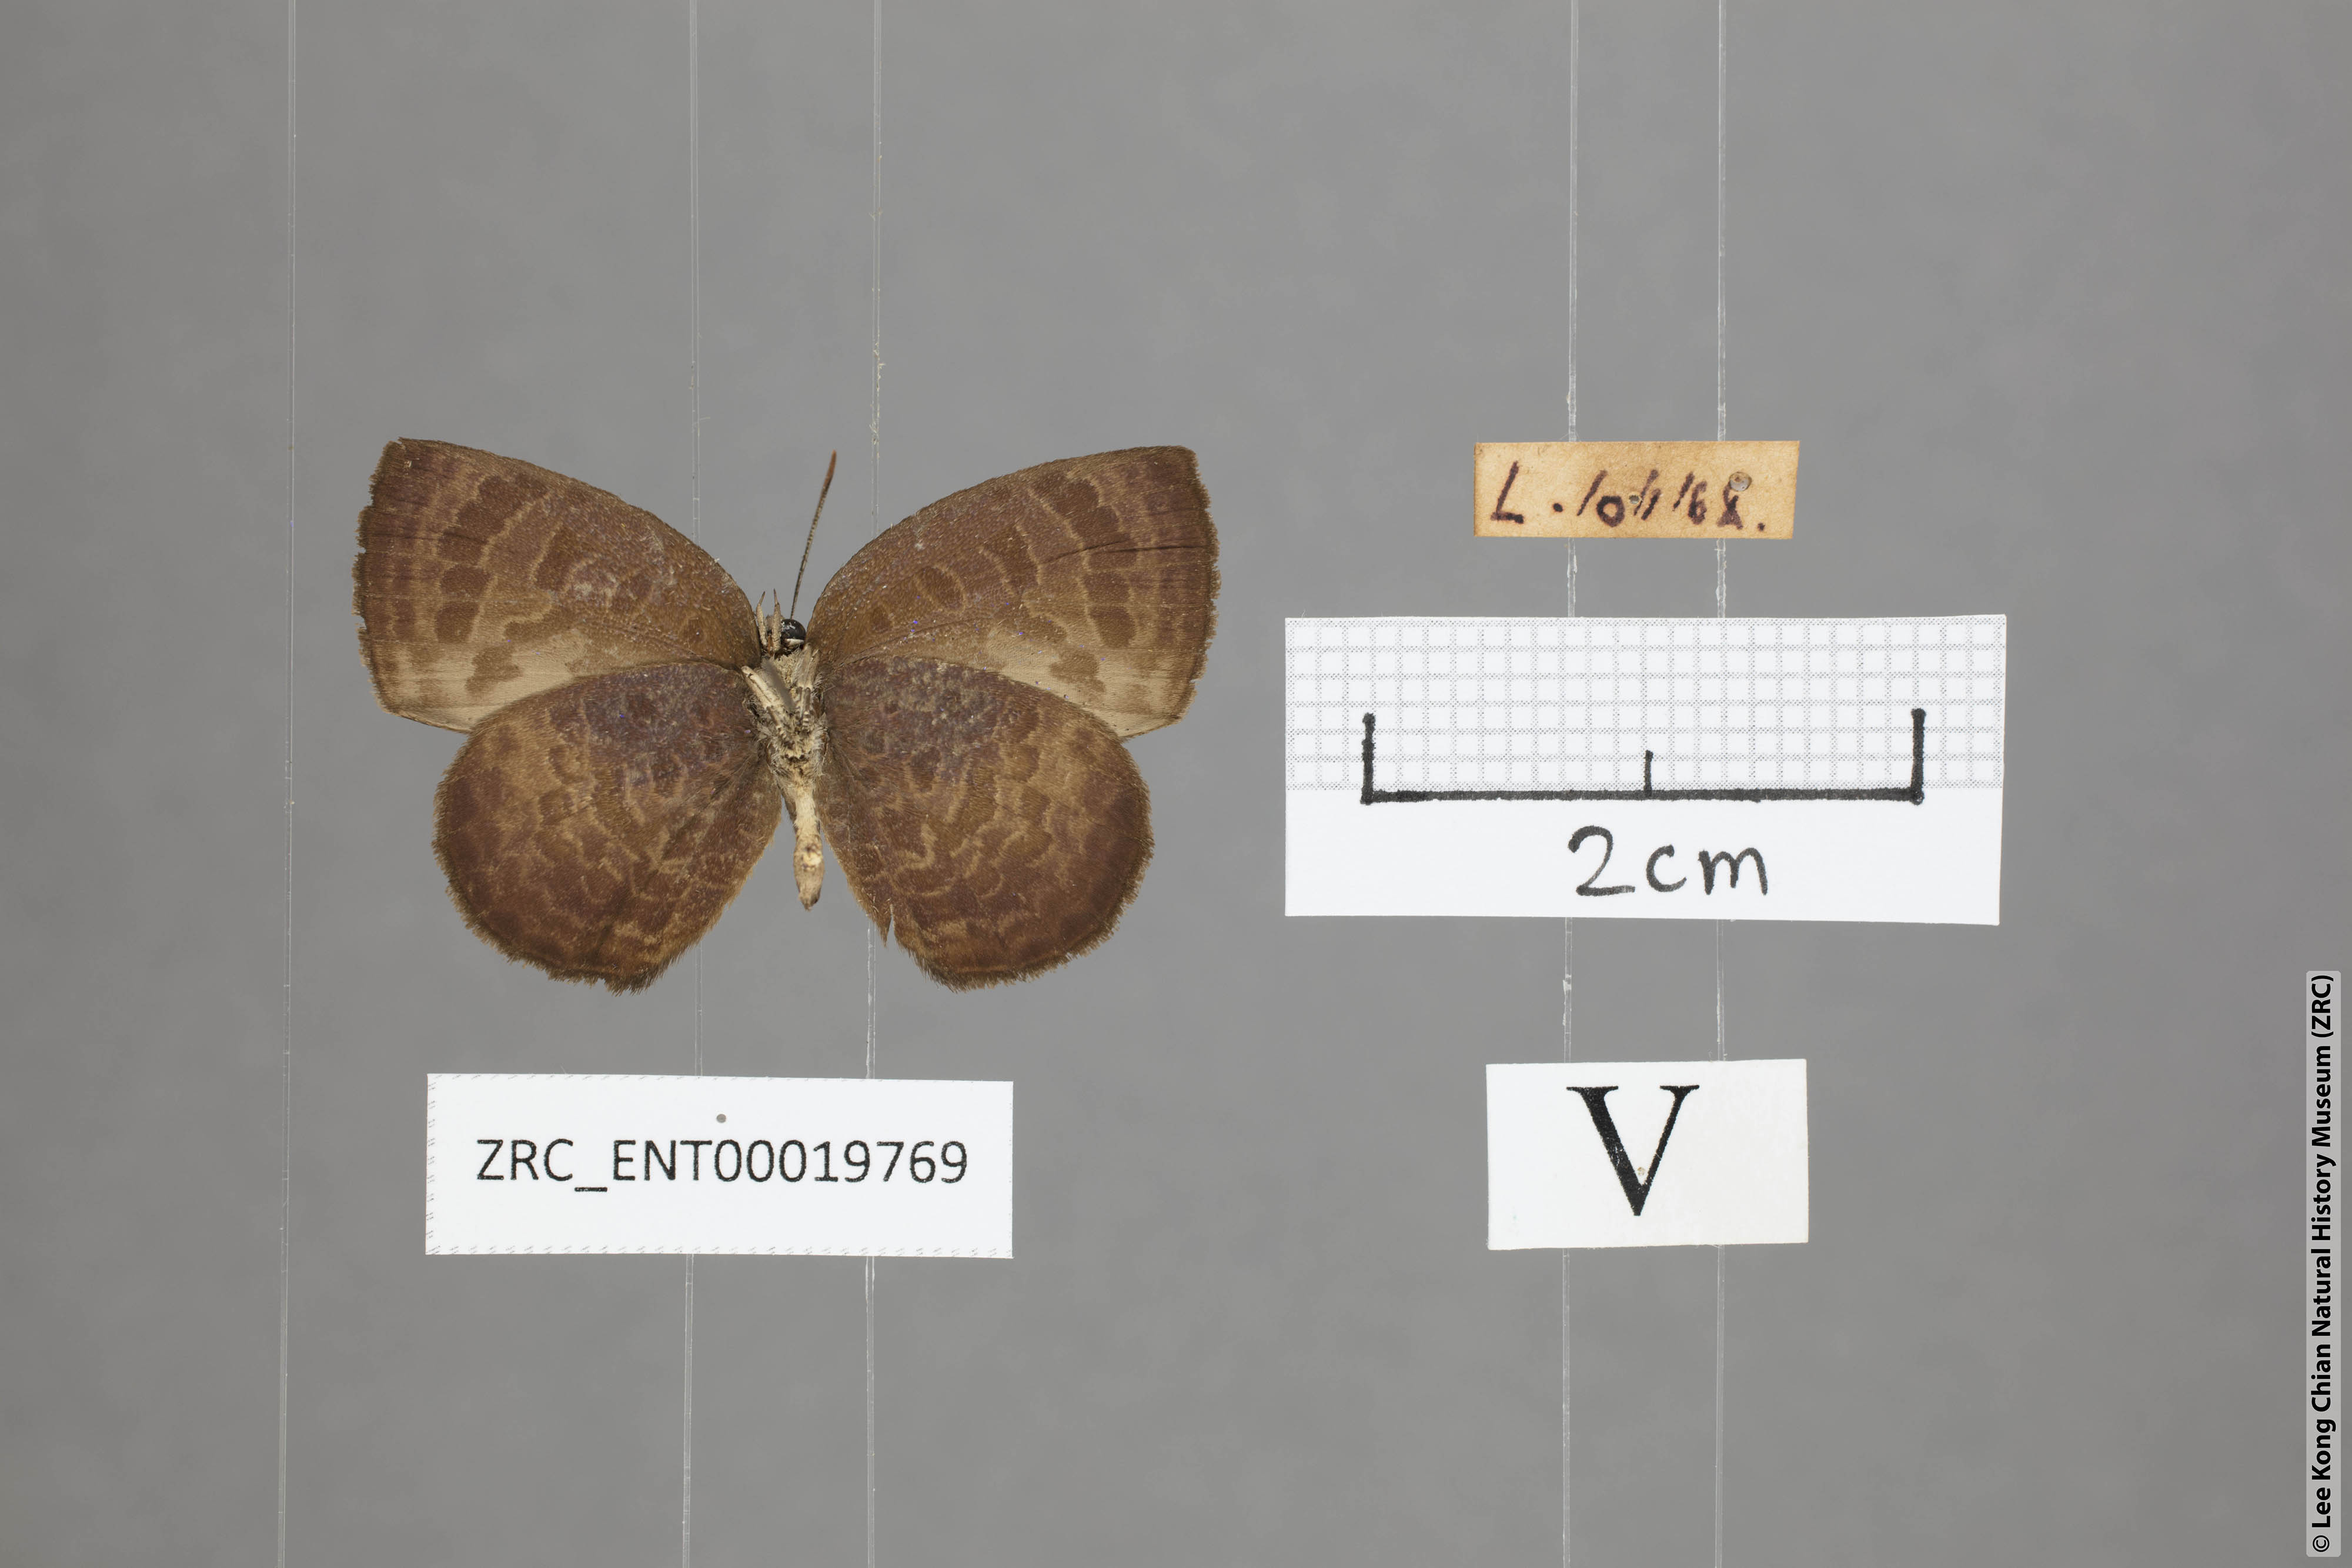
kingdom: Animalia
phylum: Arthropoda
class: Insecta
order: Lepidoptera
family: Lycaenidae
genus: Arhopala
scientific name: Arhopala perimuta
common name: Yellowdisc oakblue
